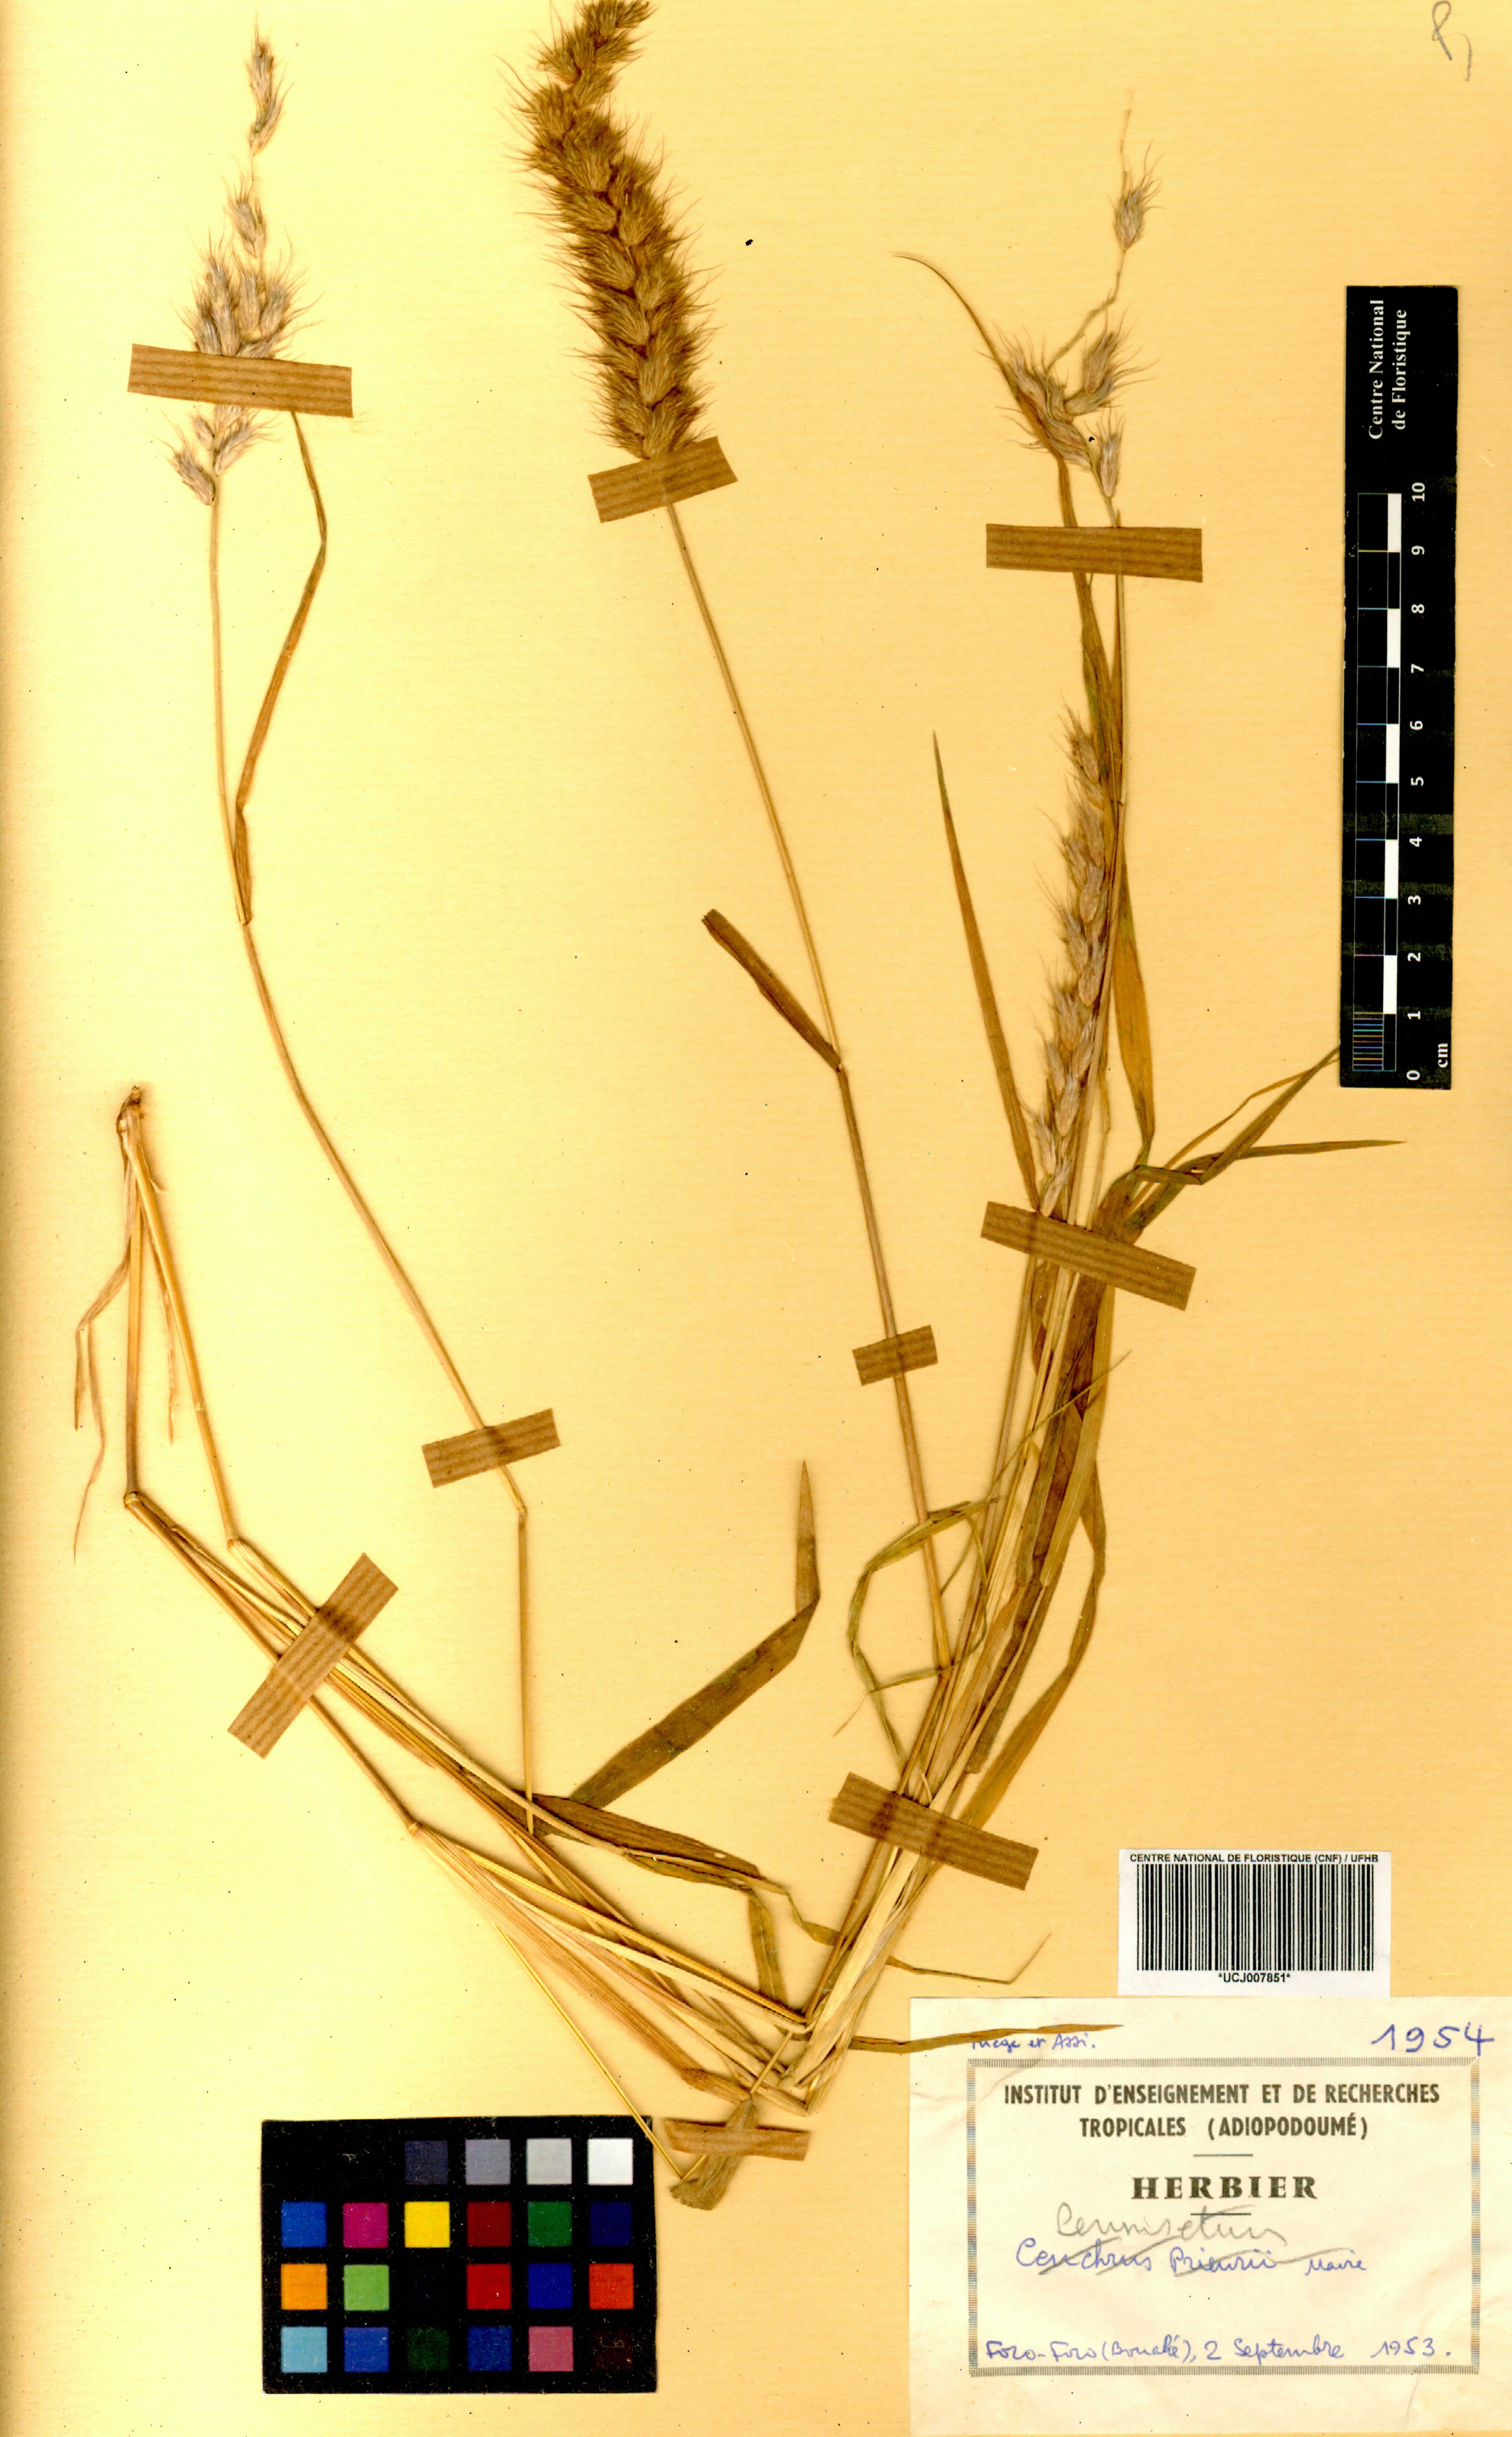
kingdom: Plantae
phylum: Tracheophyta
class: Liliopsida
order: Poales
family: Poaceae
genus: Cenchrus
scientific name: Cenchrus Pennisetum spec
